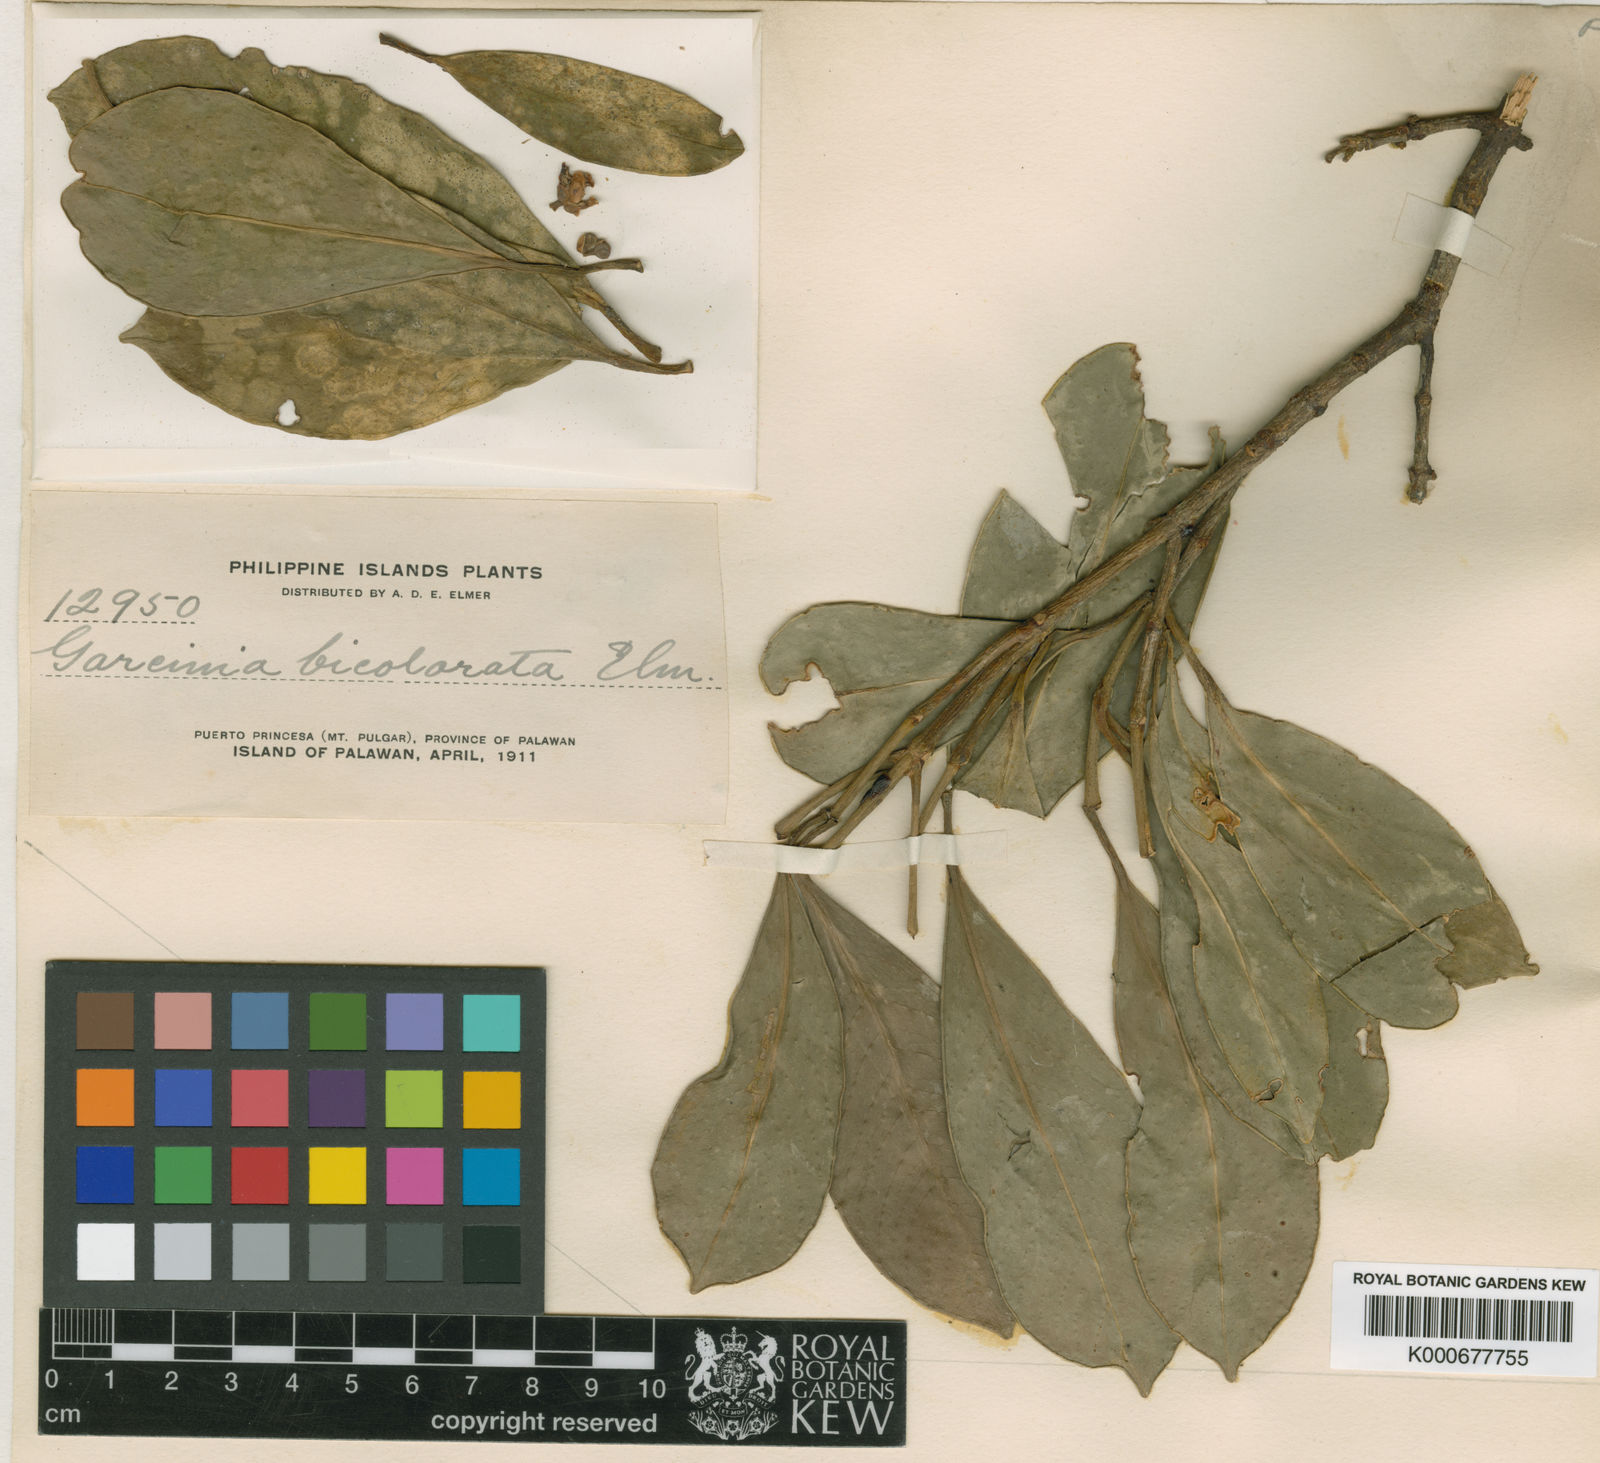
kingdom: Plantae
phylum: Tracheophyta
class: Magnoliopsida
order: Malpighiales
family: Clusiaceae
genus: Garcinia
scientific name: Garcinia bicolorata
